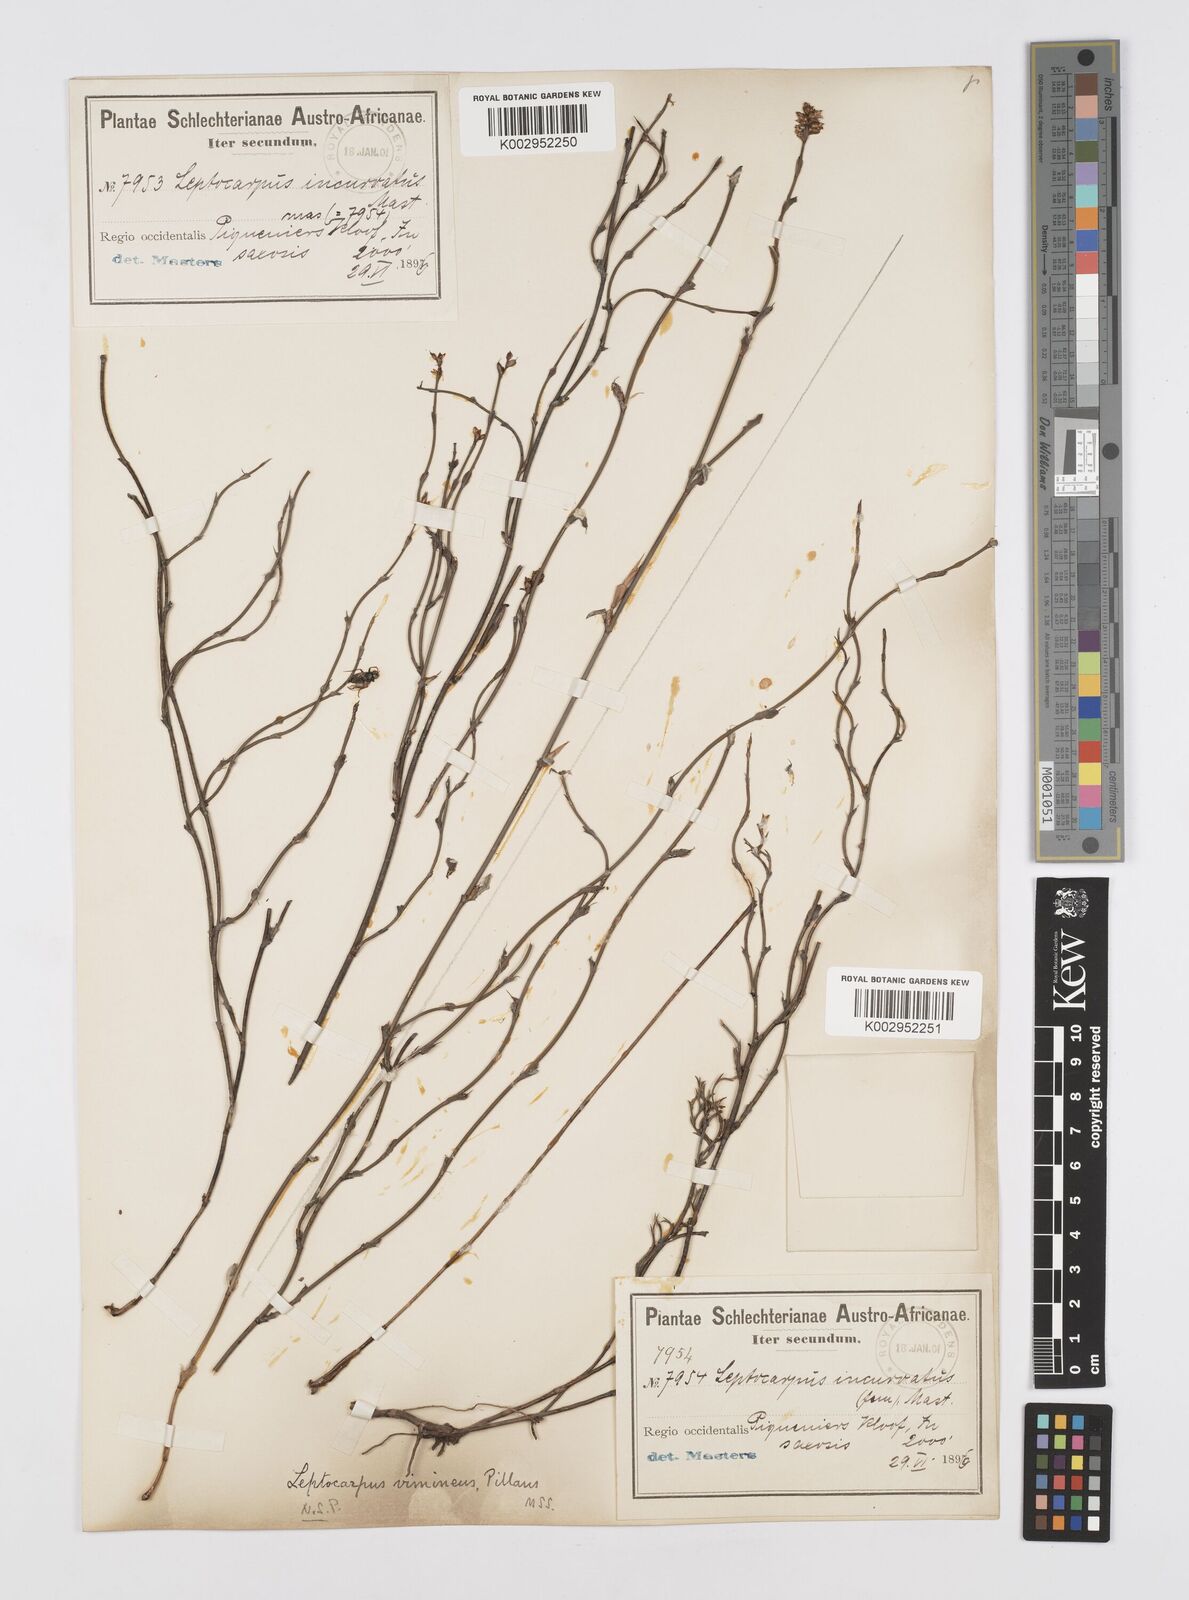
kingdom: Plantae
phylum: Tracheophyta
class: Liliopsida
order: Poales
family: Restionaceae
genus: Restio
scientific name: Restio vimineus
